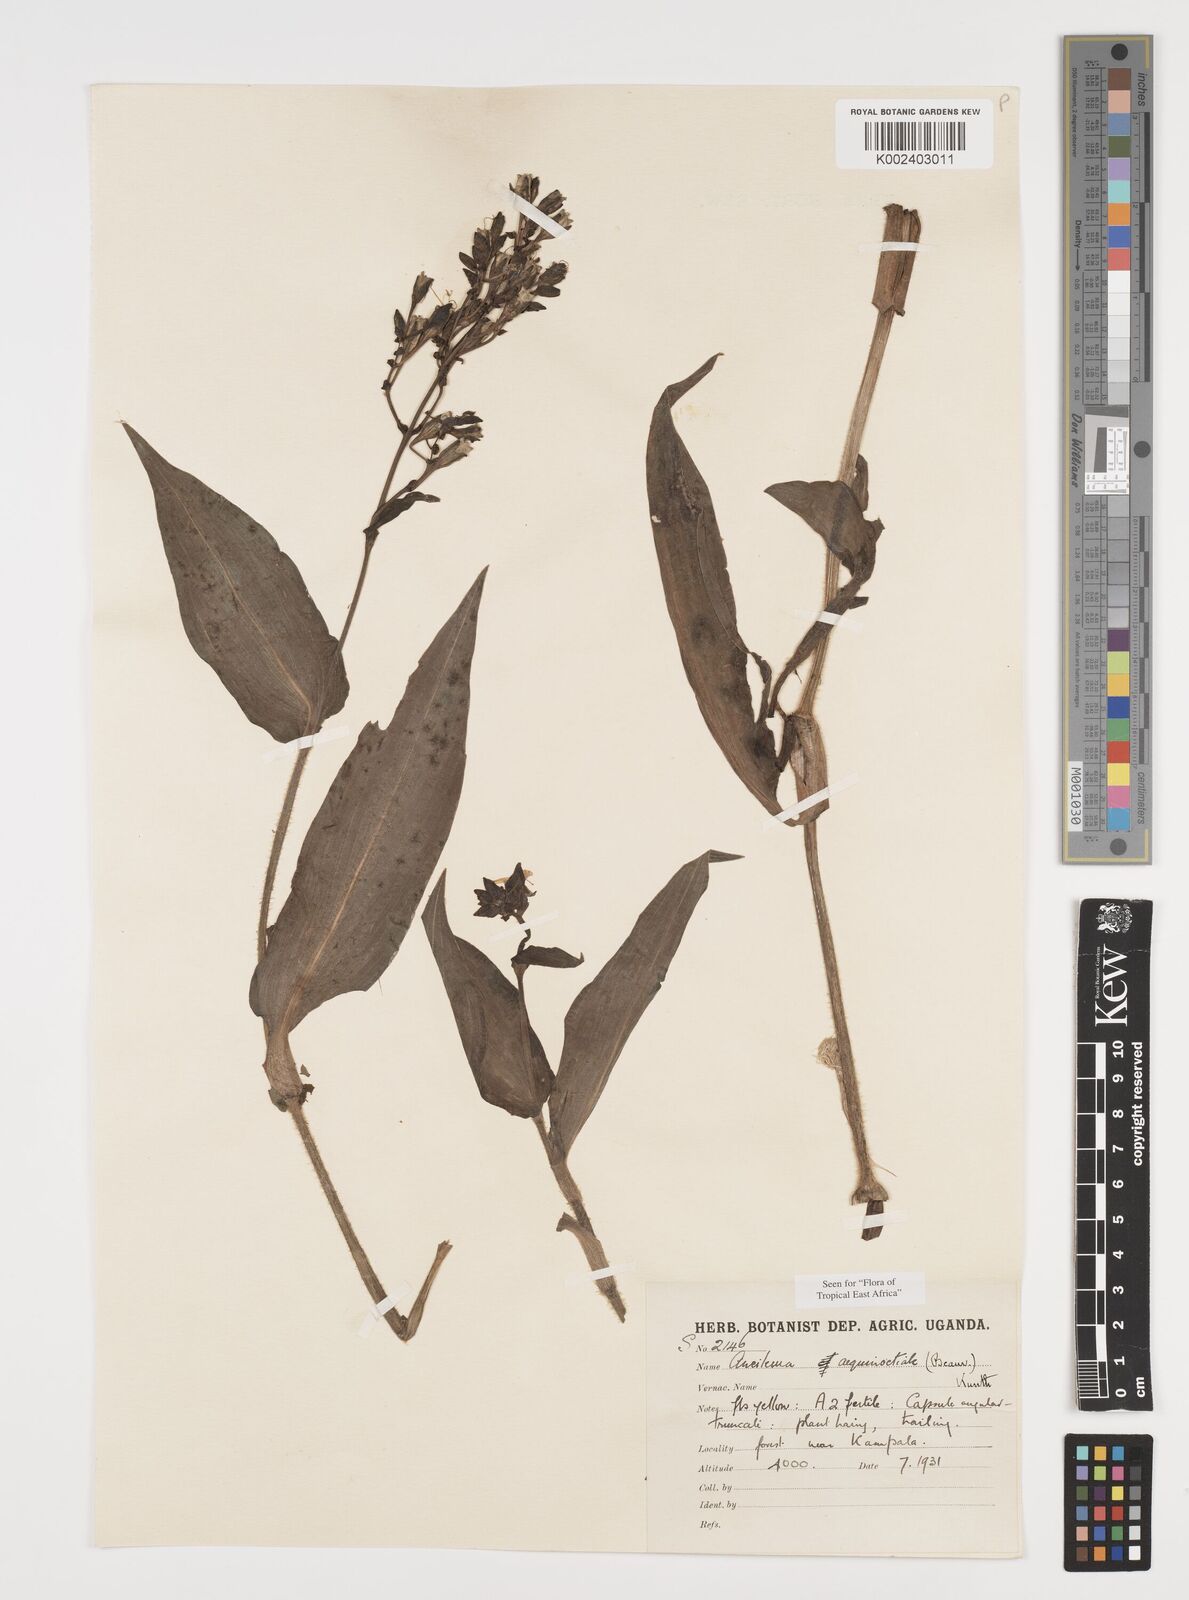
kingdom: Plantae
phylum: Tracheophyta
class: Liliopsida
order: Commelinales
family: Commelinaceae
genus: Aneilema
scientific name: Aneilema aequinoctiale
